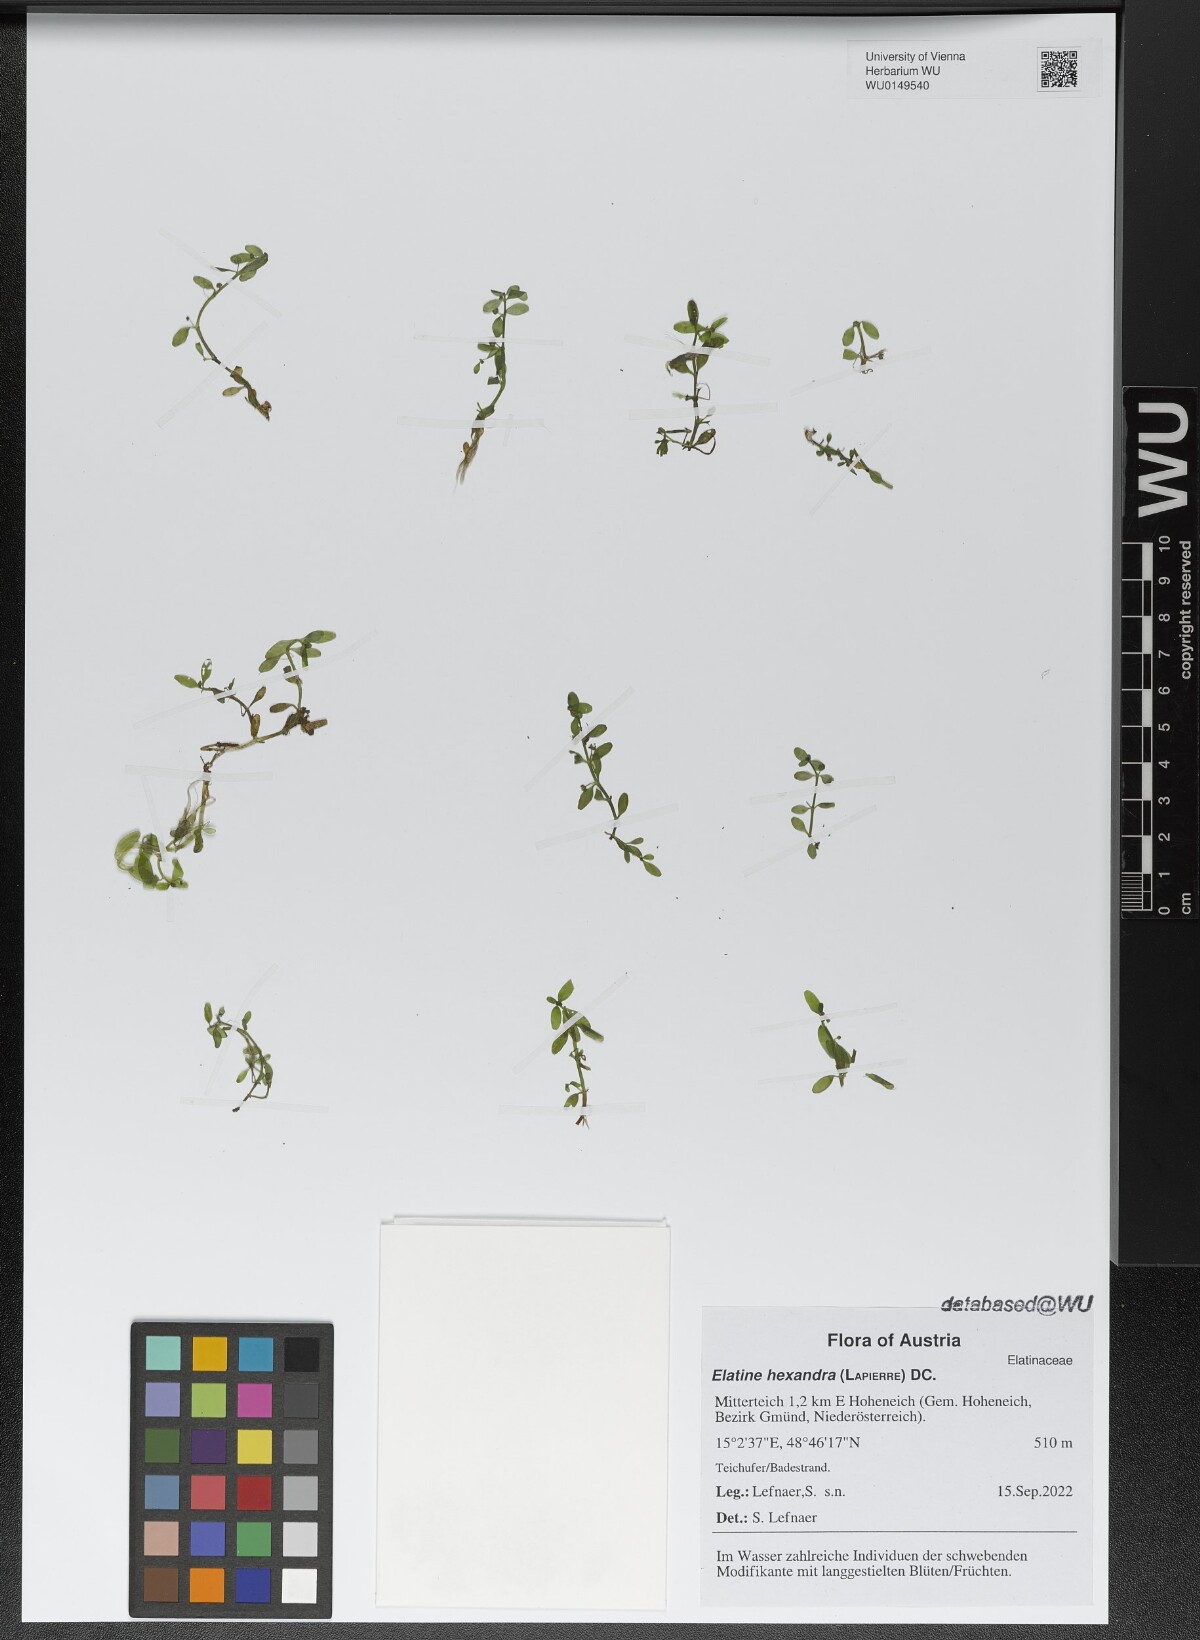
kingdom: Plantae
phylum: Tracheophyta
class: Magnoliopsida
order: Malpighiales
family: Elatinaceae
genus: Elatine
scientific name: Elatine hexandra
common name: Six-stamened waterwort
